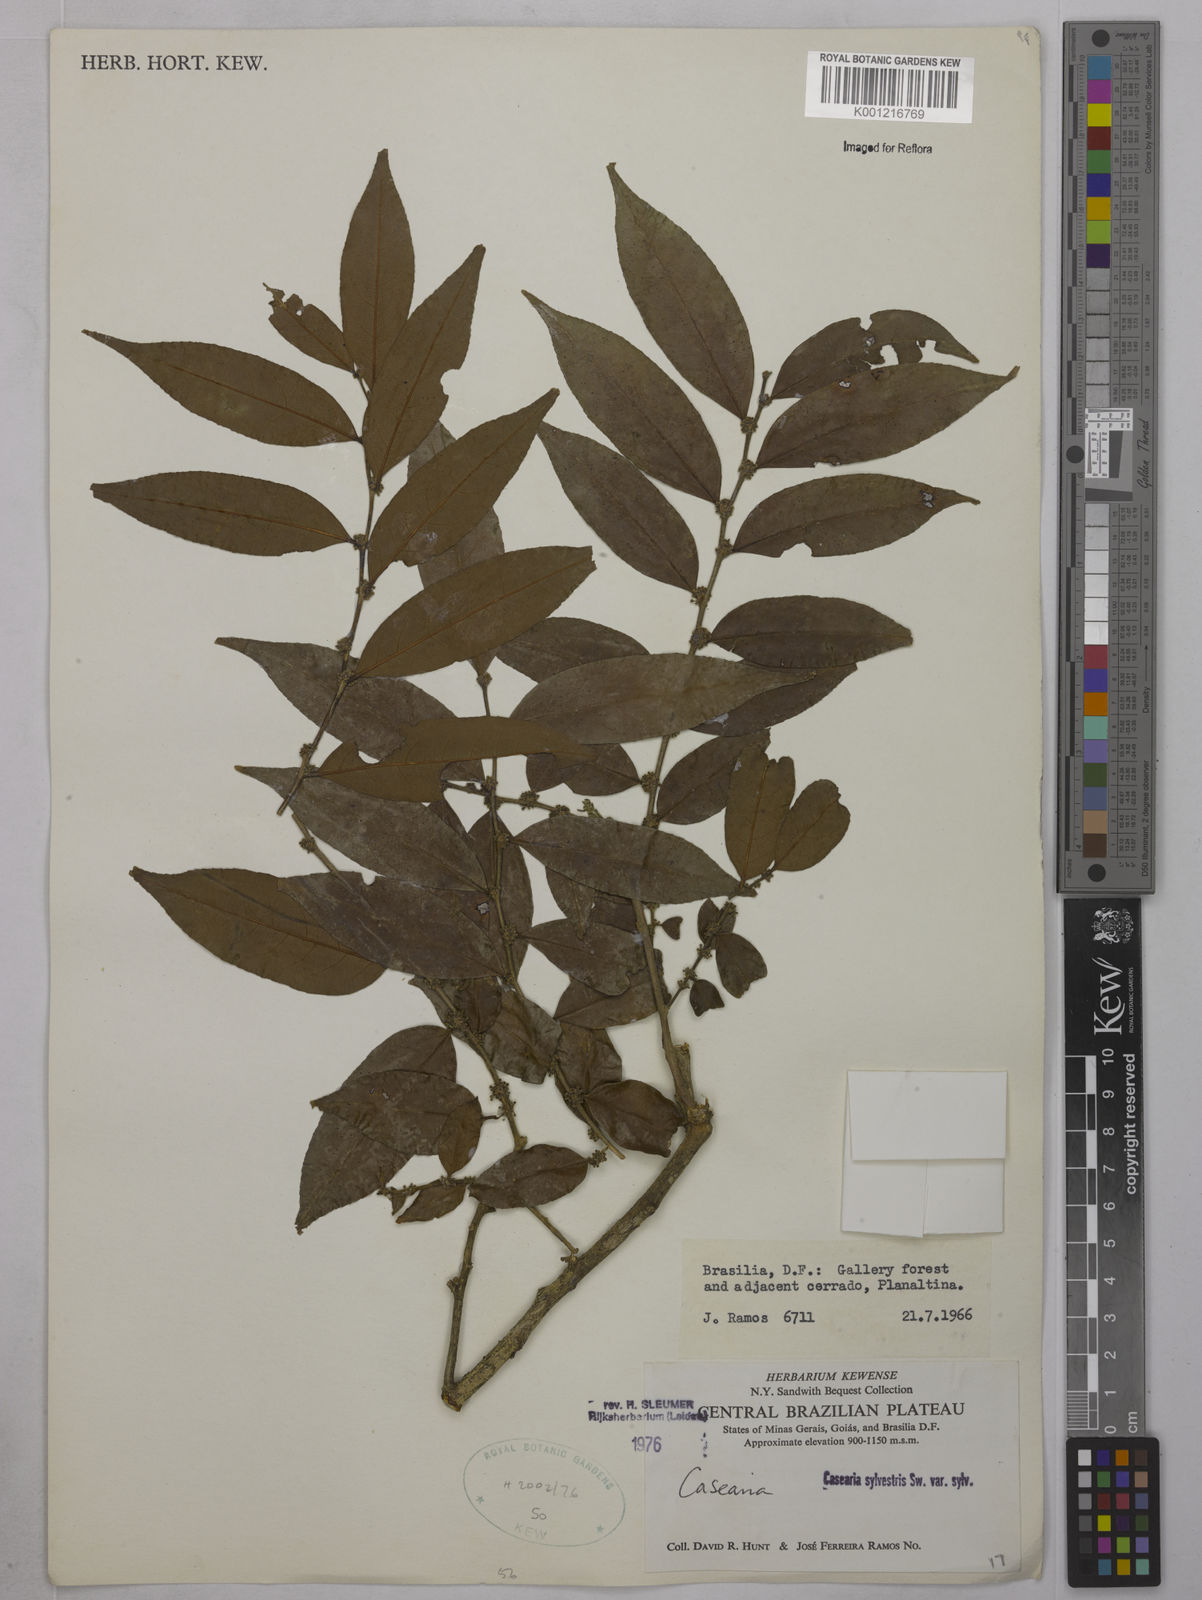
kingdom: Plantae
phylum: Tracheophyta
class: Magnoliopsida
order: Malpighiales
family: Salicaceae
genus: Casearia
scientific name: Casearia sylvestris
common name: Wild sage
